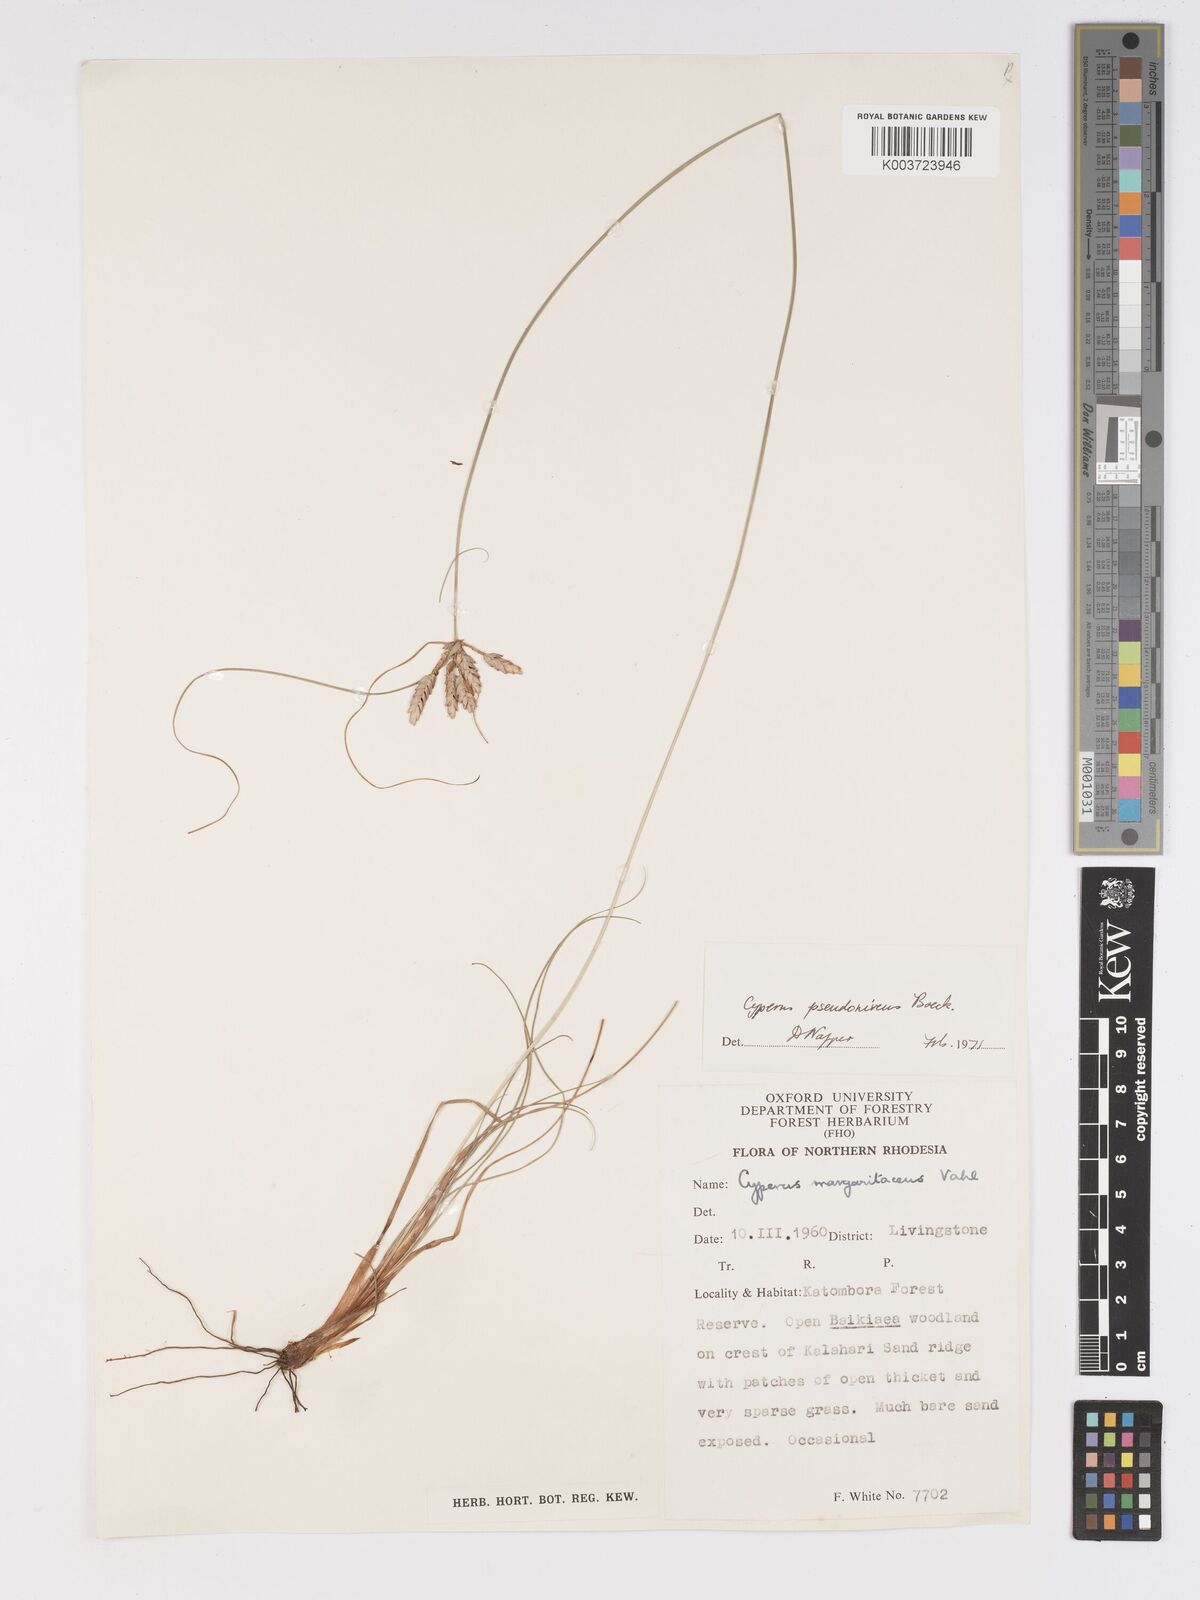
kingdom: Plantae
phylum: Tracheophyta
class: Liliopsida
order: Poales
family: Cyperaceae
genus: Cyperus
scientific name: Cyperus margaritaceus
